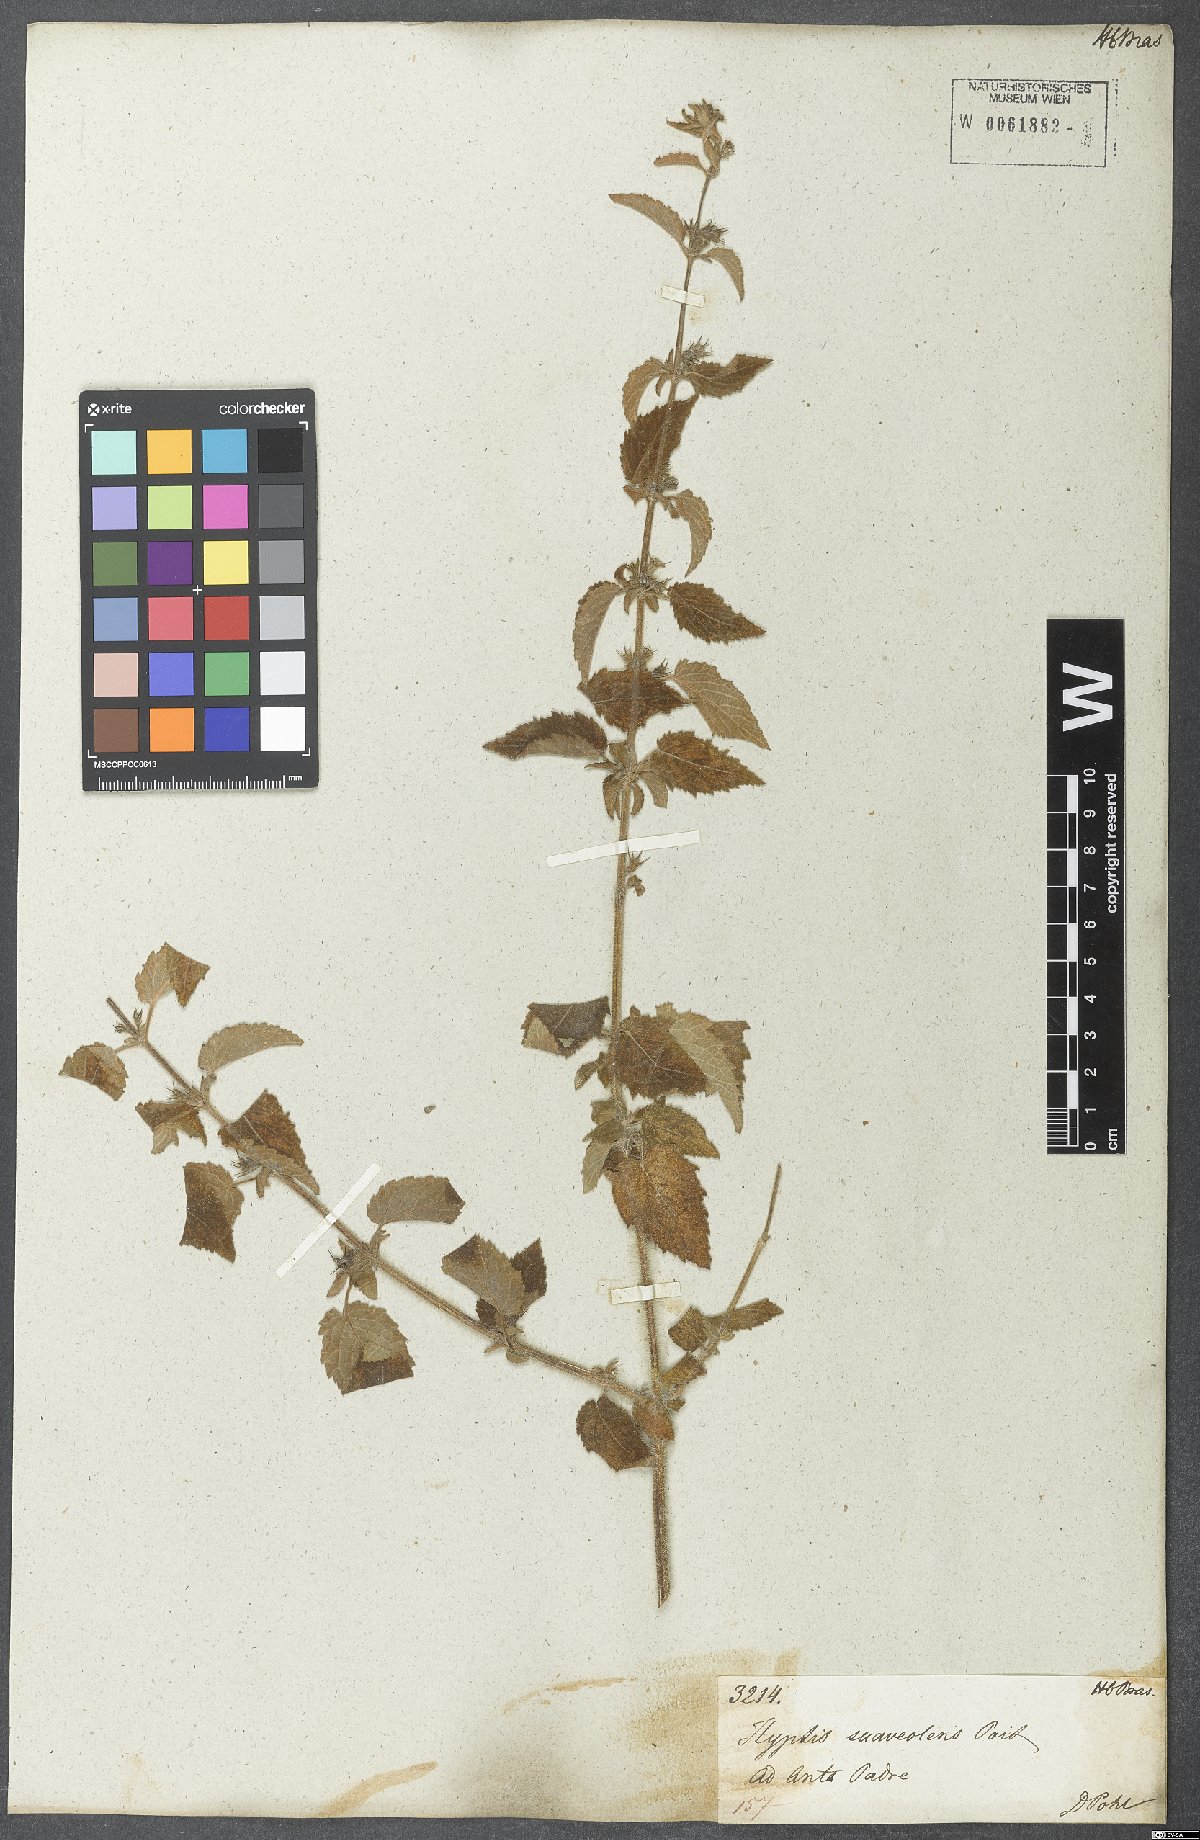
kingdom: Plantae
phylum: Tracheophyta
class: Magnoliopsida
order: Lamiales
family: Lamiaceae
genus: Mesosphaerum
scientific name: Mesosphaerum suaveolens
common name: Pignut
